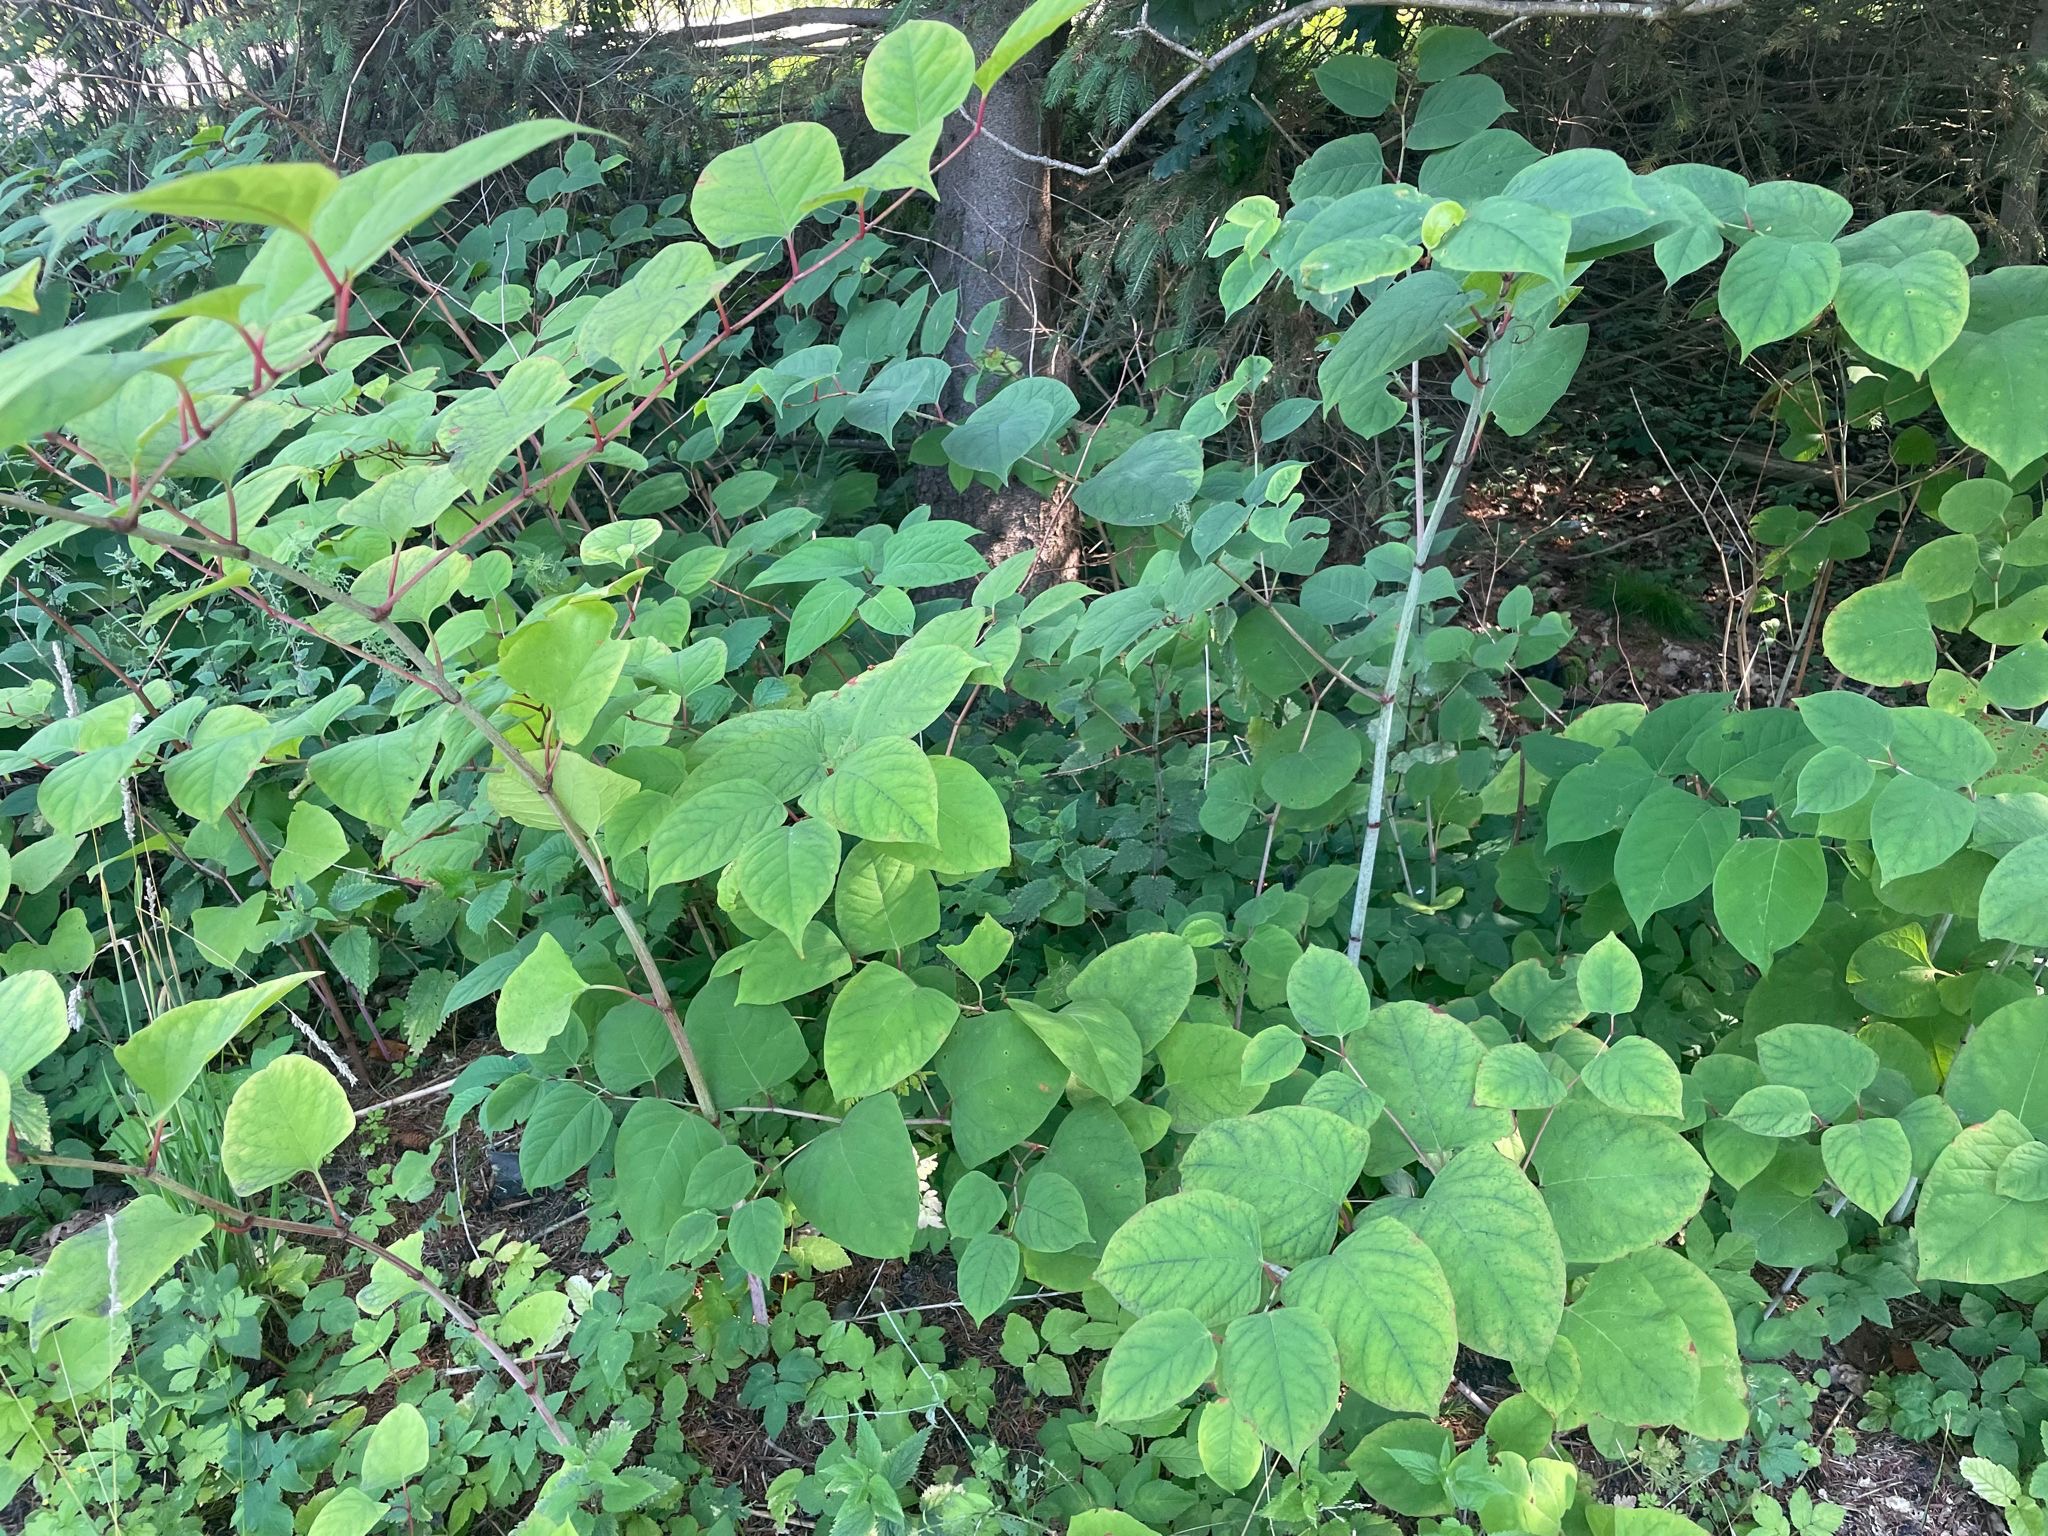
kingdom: Plantae
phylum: Tracheophyta
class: Magnoliopsida
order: Caryophyllales
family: Polygonaceae
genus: Reynoutria
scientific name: Reynoutria japonica
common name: Japan-pileurt
